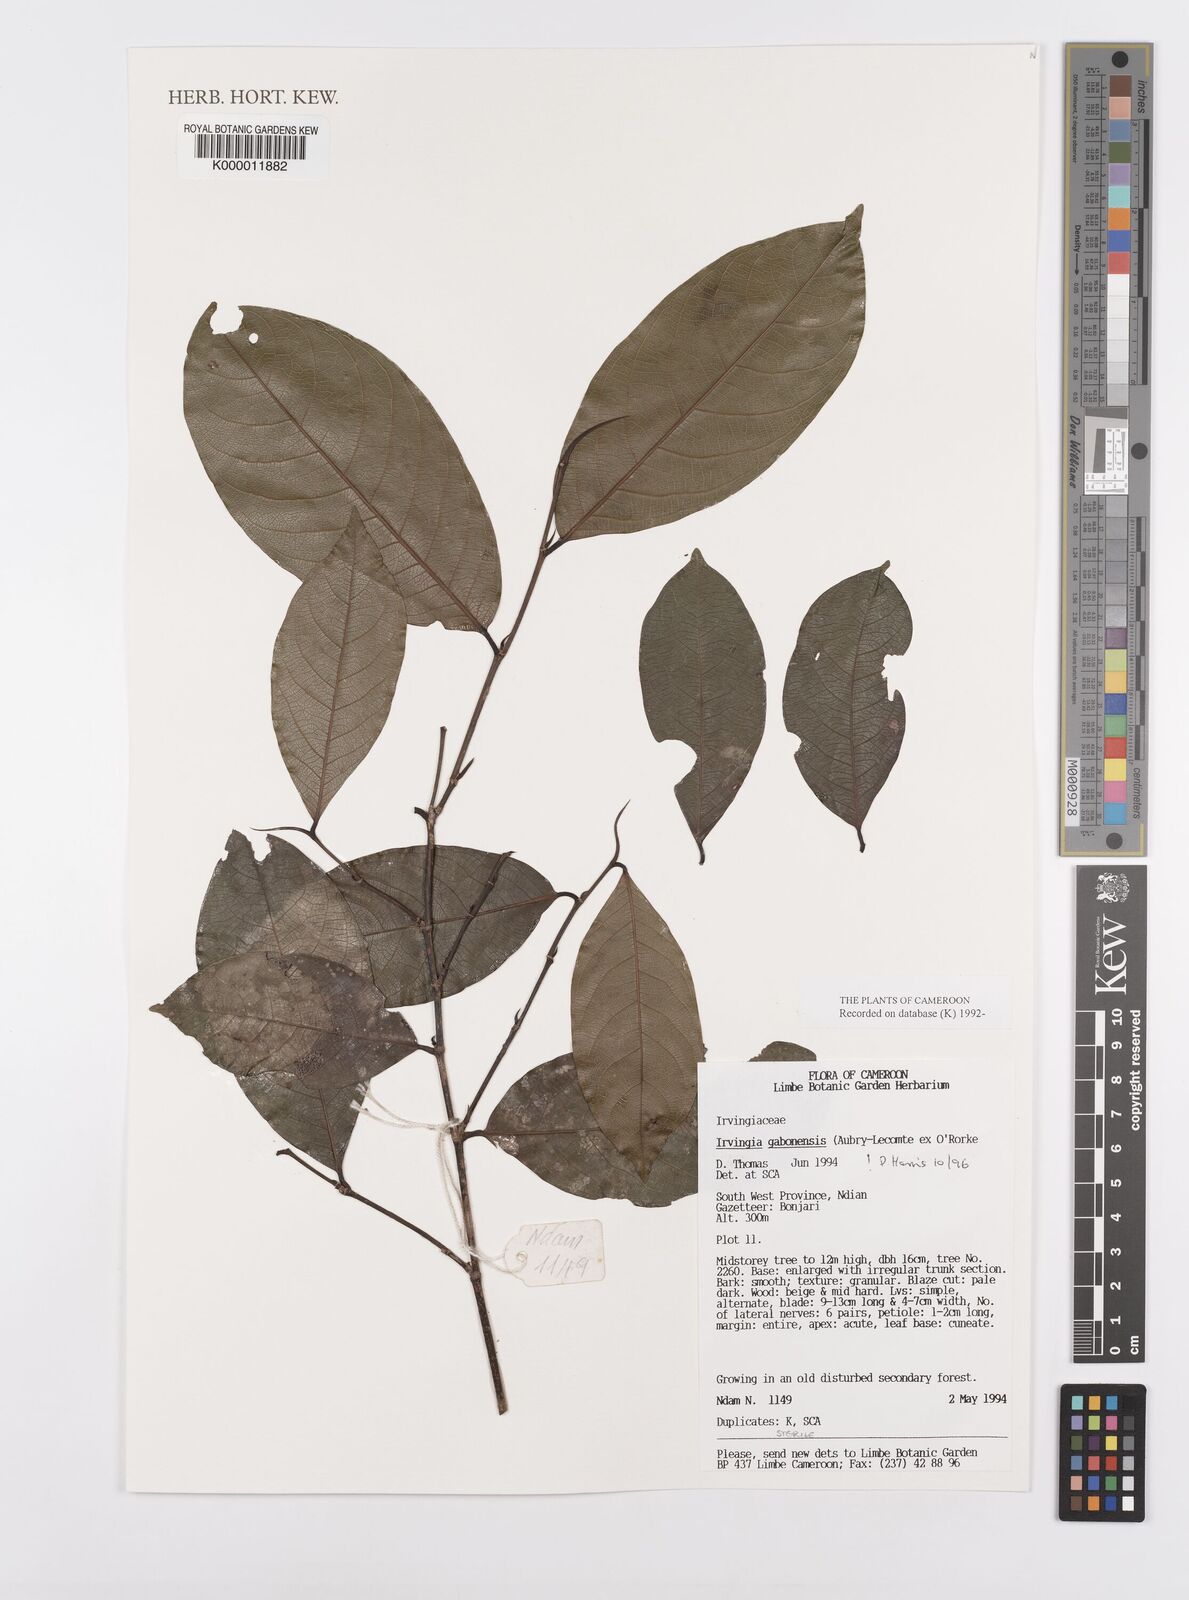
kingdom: Plantae
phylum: Tracheophyta
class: Magnoliopsida
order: Malpighiales
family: Irvingiaceae
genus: Irvingia
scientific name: Irvingia gabonensis
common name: Rainy season bush-mango
